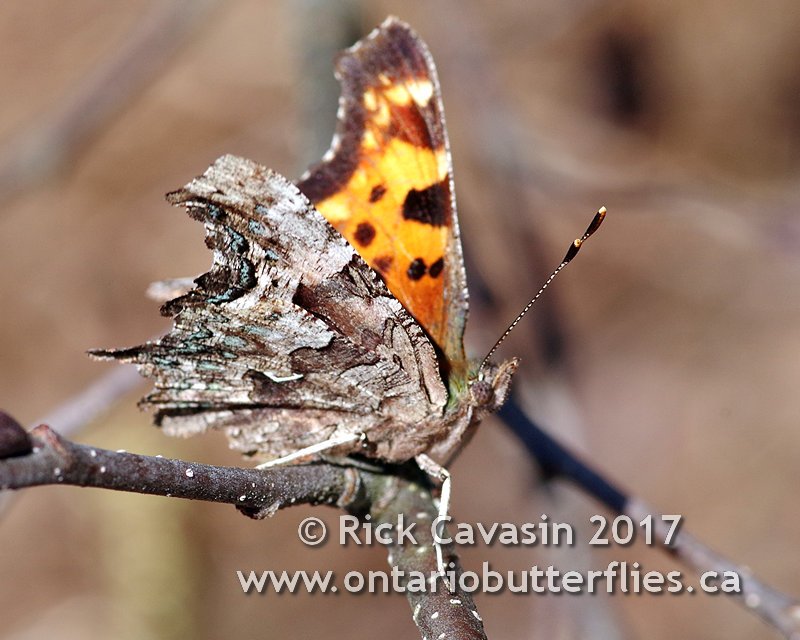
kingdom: Animalia
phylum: Arthropoda
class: Insecta
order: Lepidoptera
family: Nymphalidae
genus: Polygonia
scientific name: Polygonia faunus
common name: Green Comma
